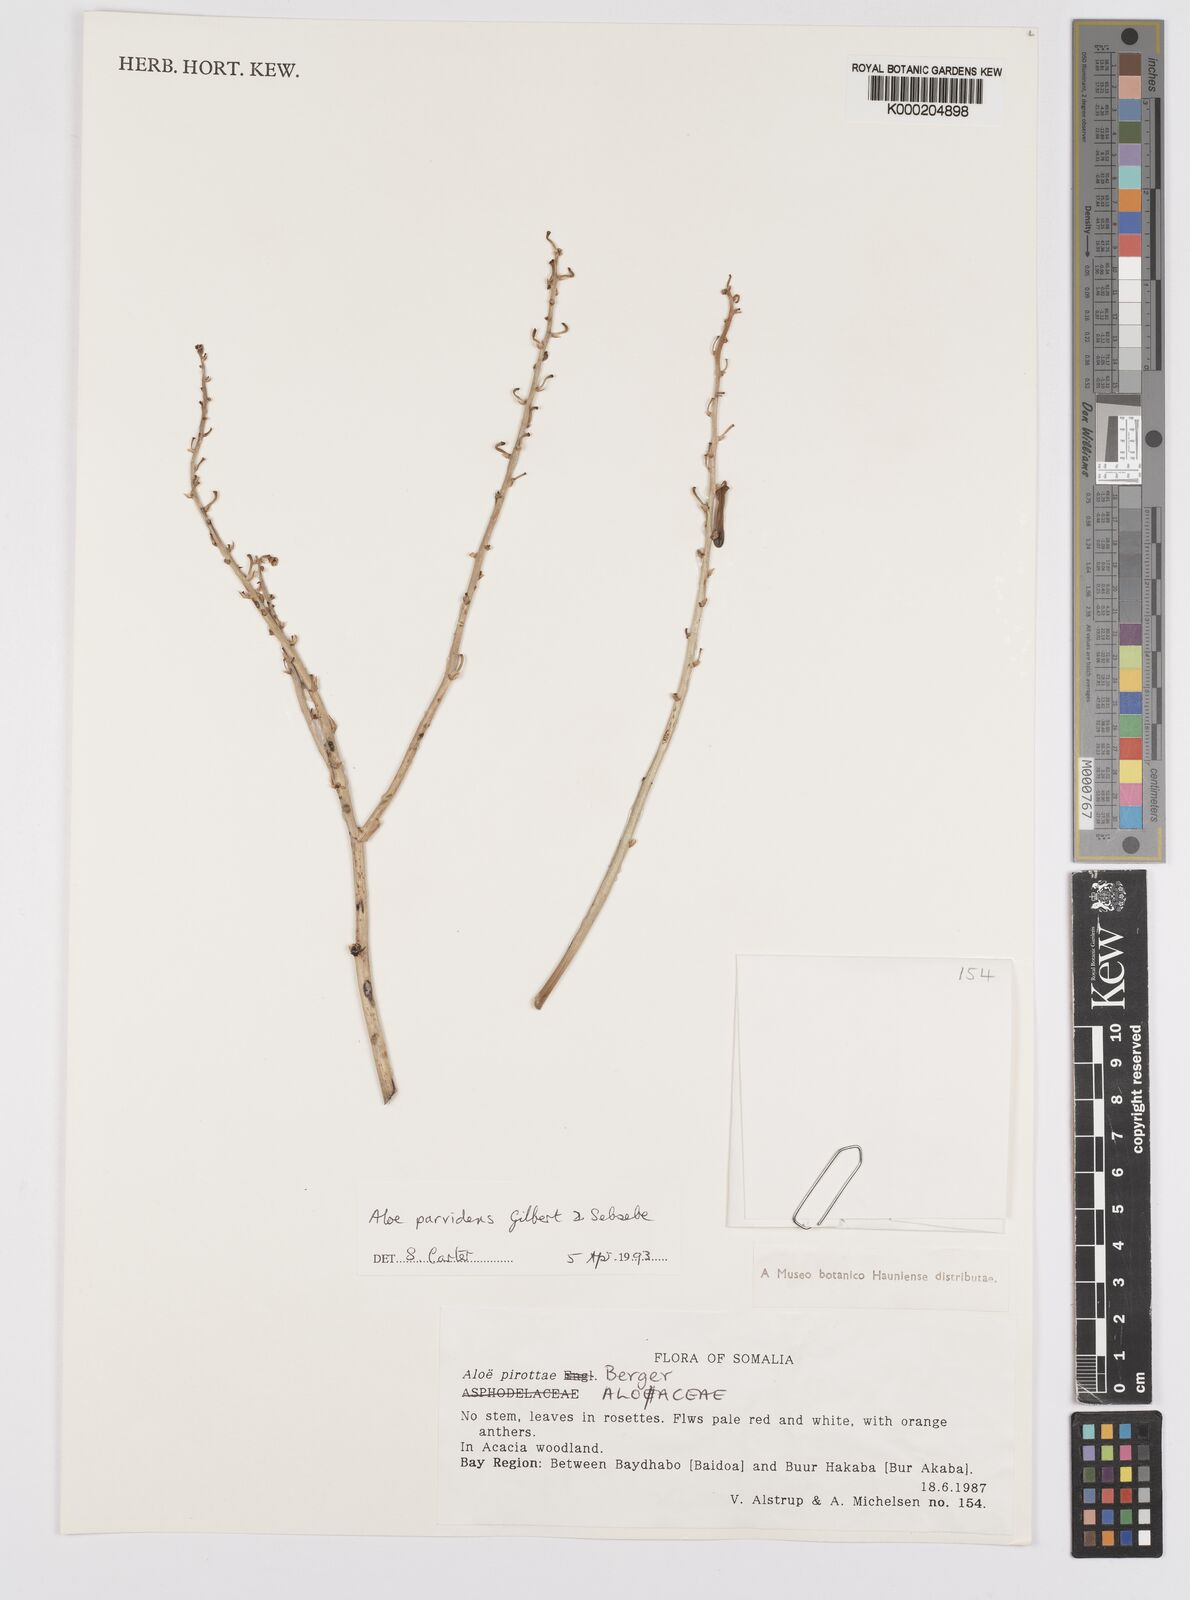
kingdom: Plantae
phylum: Tracheophyta
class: Liliopsida
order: Asparagales
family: Asphodelaceae
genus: Aloe
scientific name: Aloe parvidens
